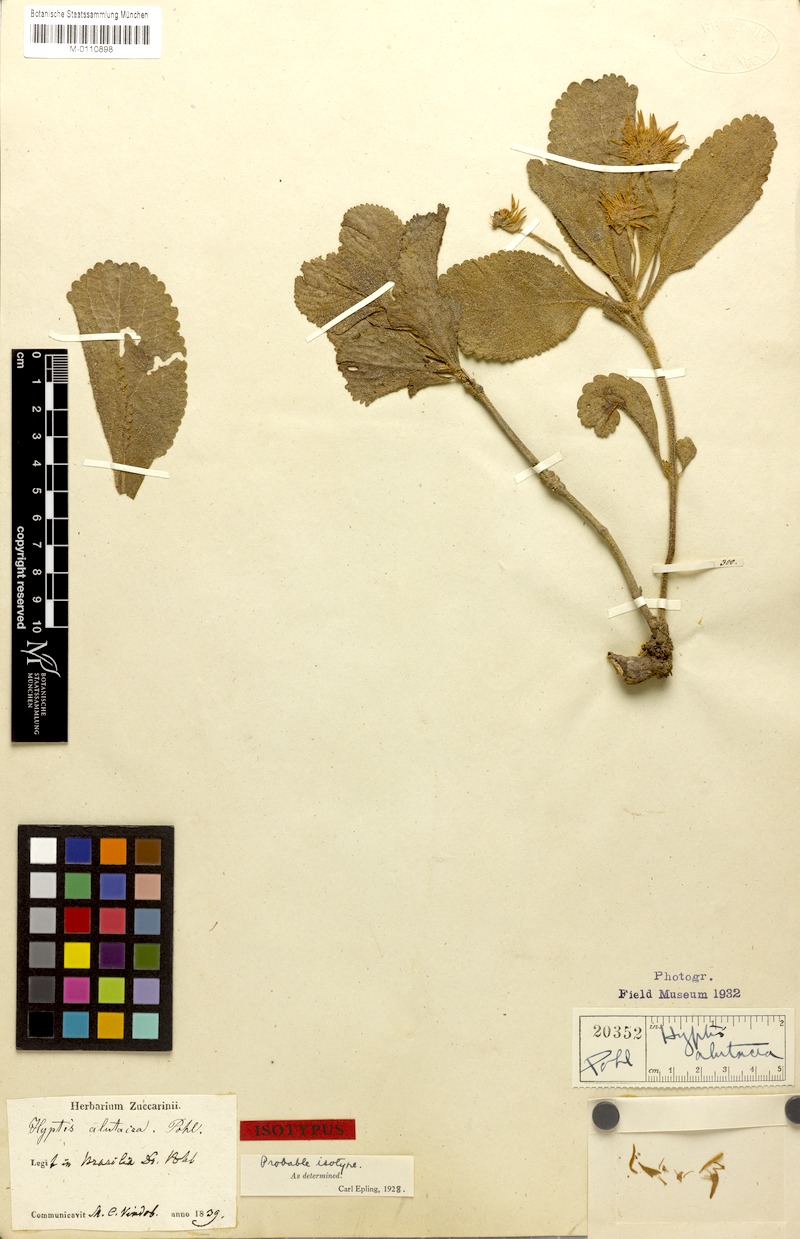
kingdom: Plantae
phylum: Tracheophyta
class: Magnoliopsida
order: Lamiales
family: Lamiaceae
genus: Hyptis
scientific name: Hyptis alutacea
